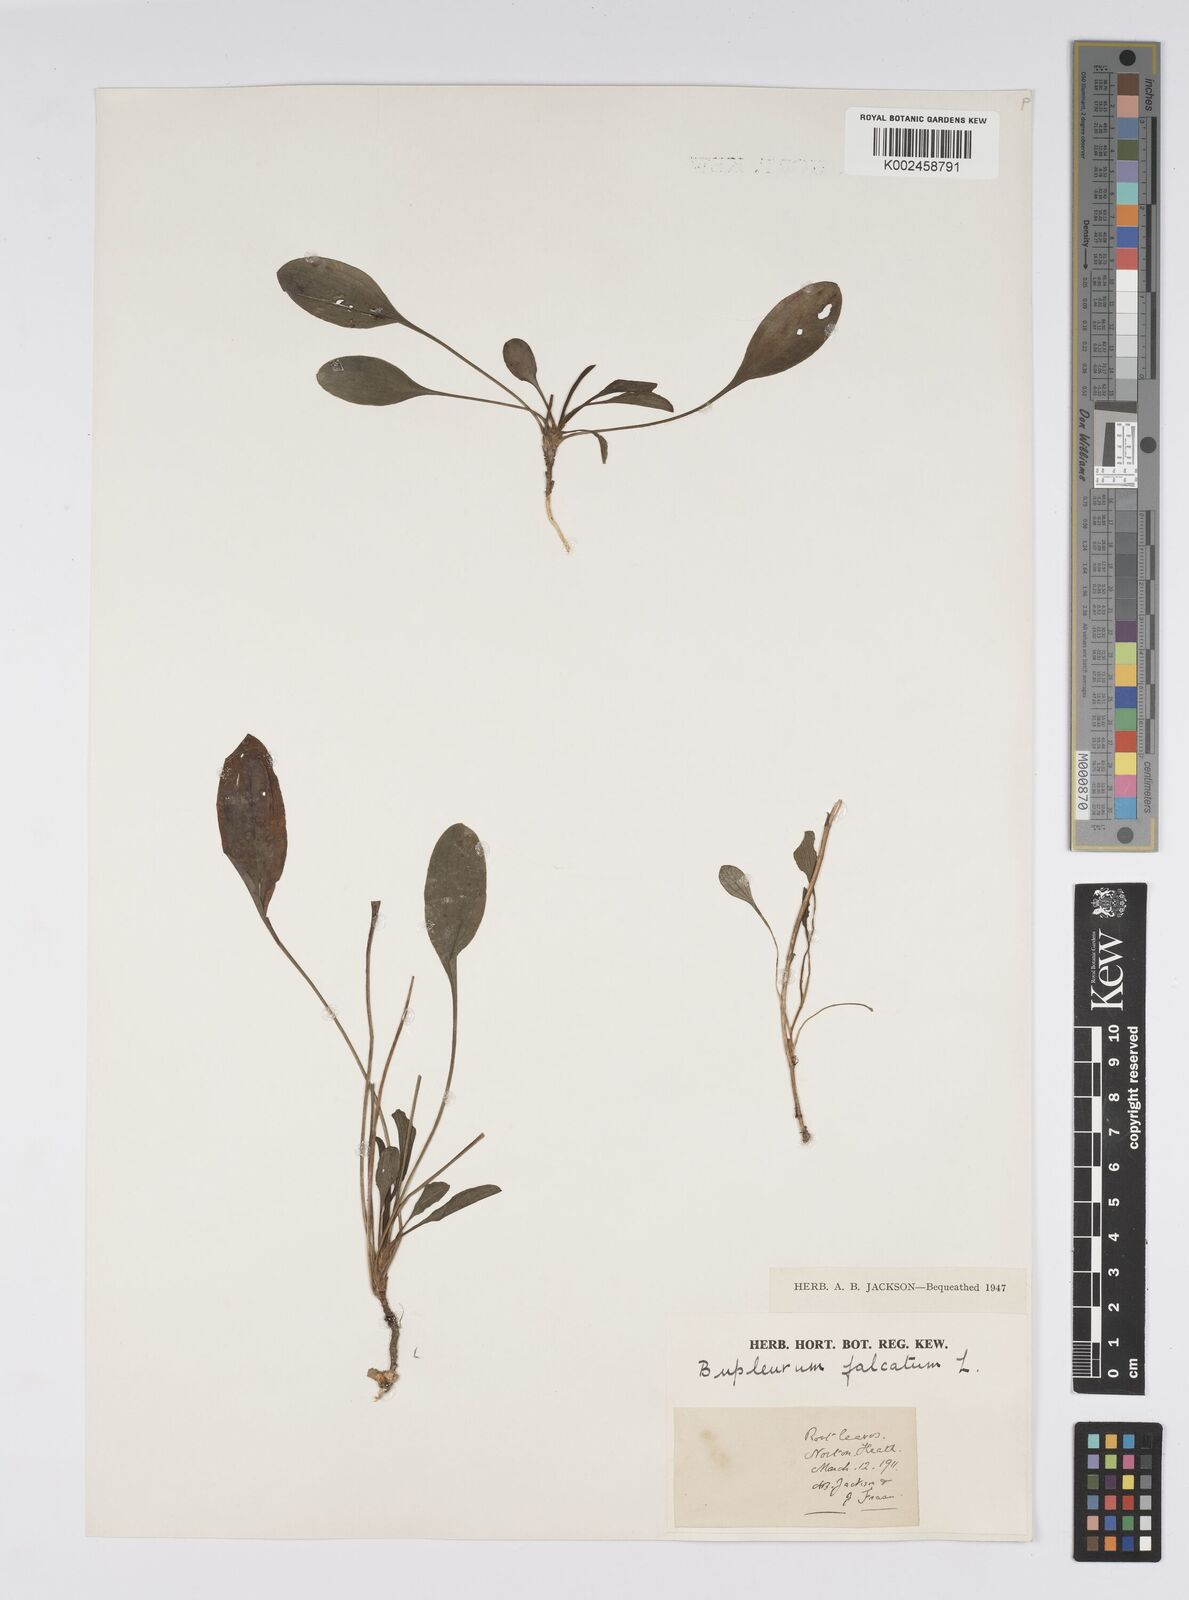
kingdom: Plantae
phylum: Tracheophyta
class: Magnoliopsida
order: Apiales
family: Apiaceae
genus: Bupleurum
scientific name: Bupleurum falcatum
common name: Sickle-leaved hare's-ear
